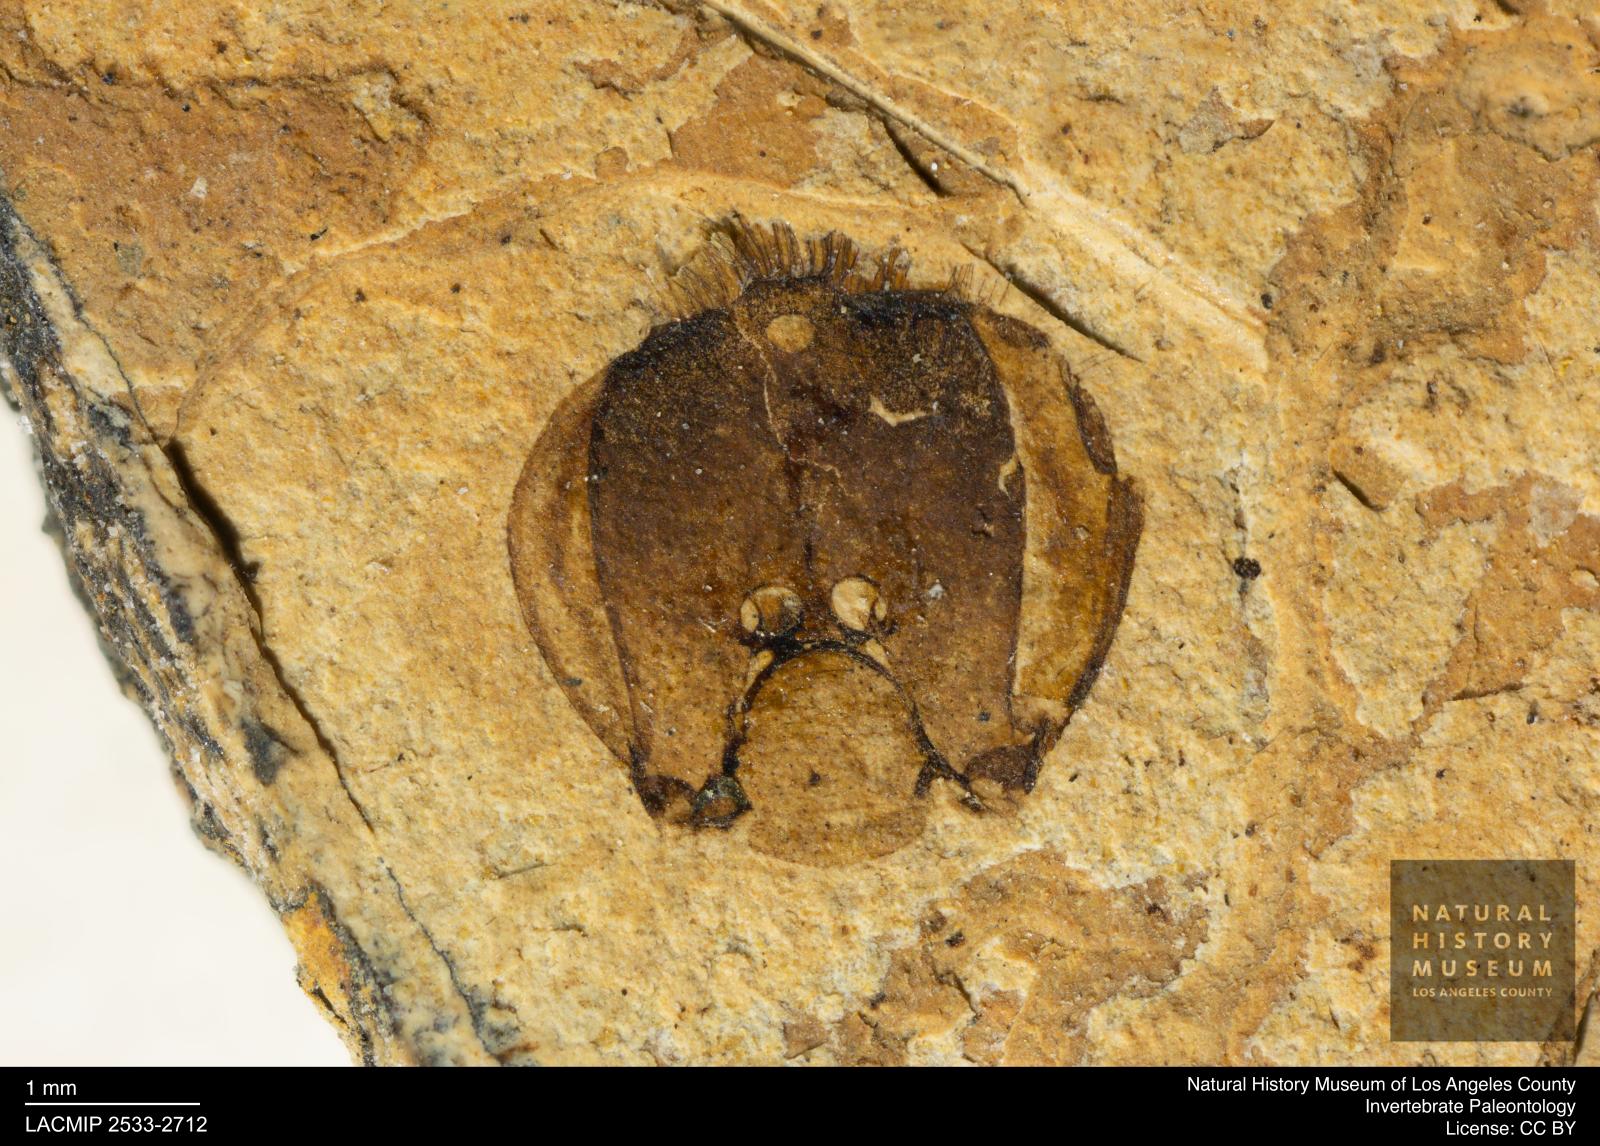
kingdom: Animalia
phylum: Arthropoda
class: Insecta
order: Hymenoptera
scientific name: Hymenoptera
